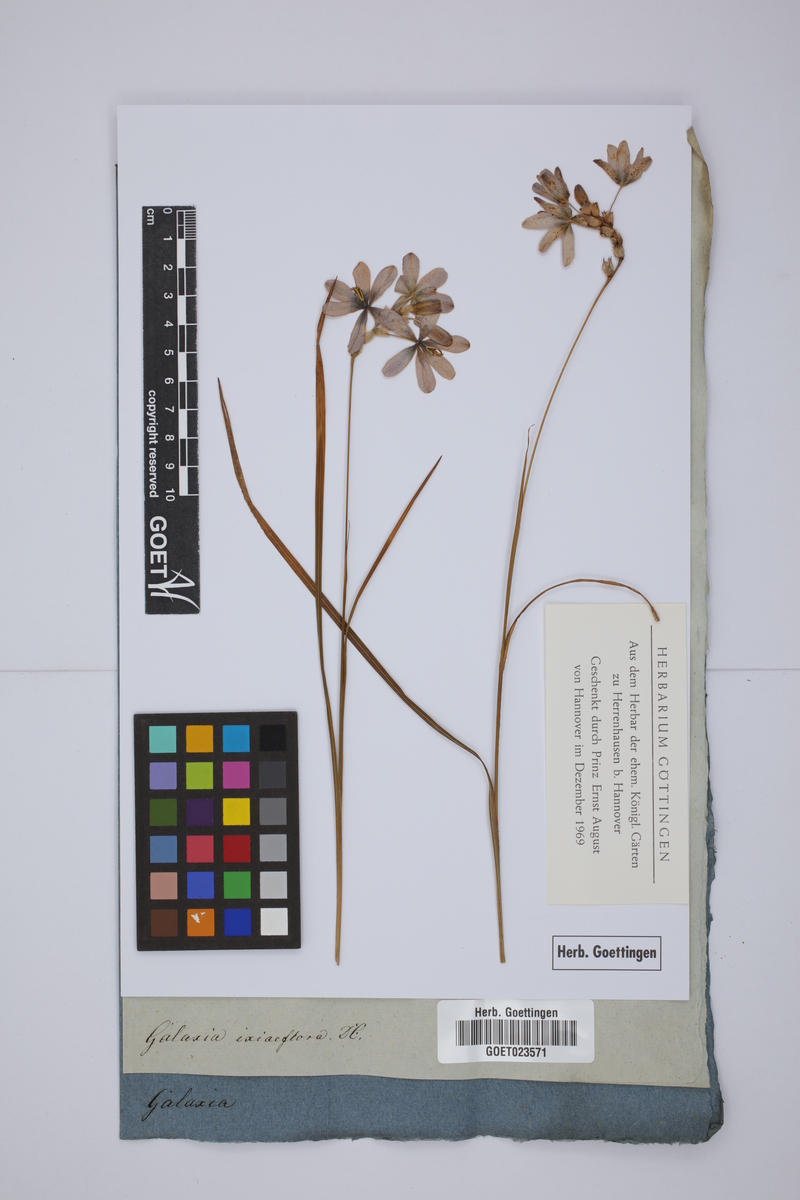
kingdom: Plantae
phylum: Tracheophyta
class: Liliopsida
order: Asparagales
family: Iridaceae
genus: Ixia
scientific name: Ixia monadelpha
